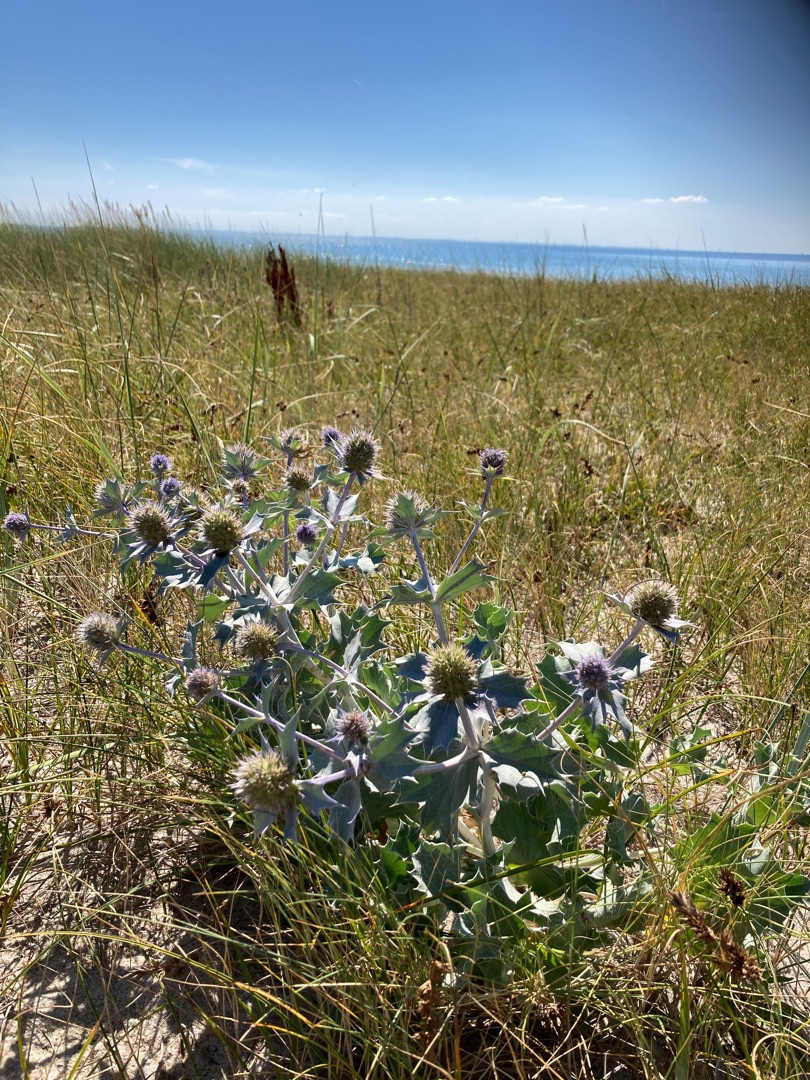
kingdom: Plantae
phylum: Tracheophyta
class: Magnoliopsida
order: Apiales
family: Apiaceae
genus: Eryngium
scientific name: Eryngium maritimum
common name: Strand-mandstro
